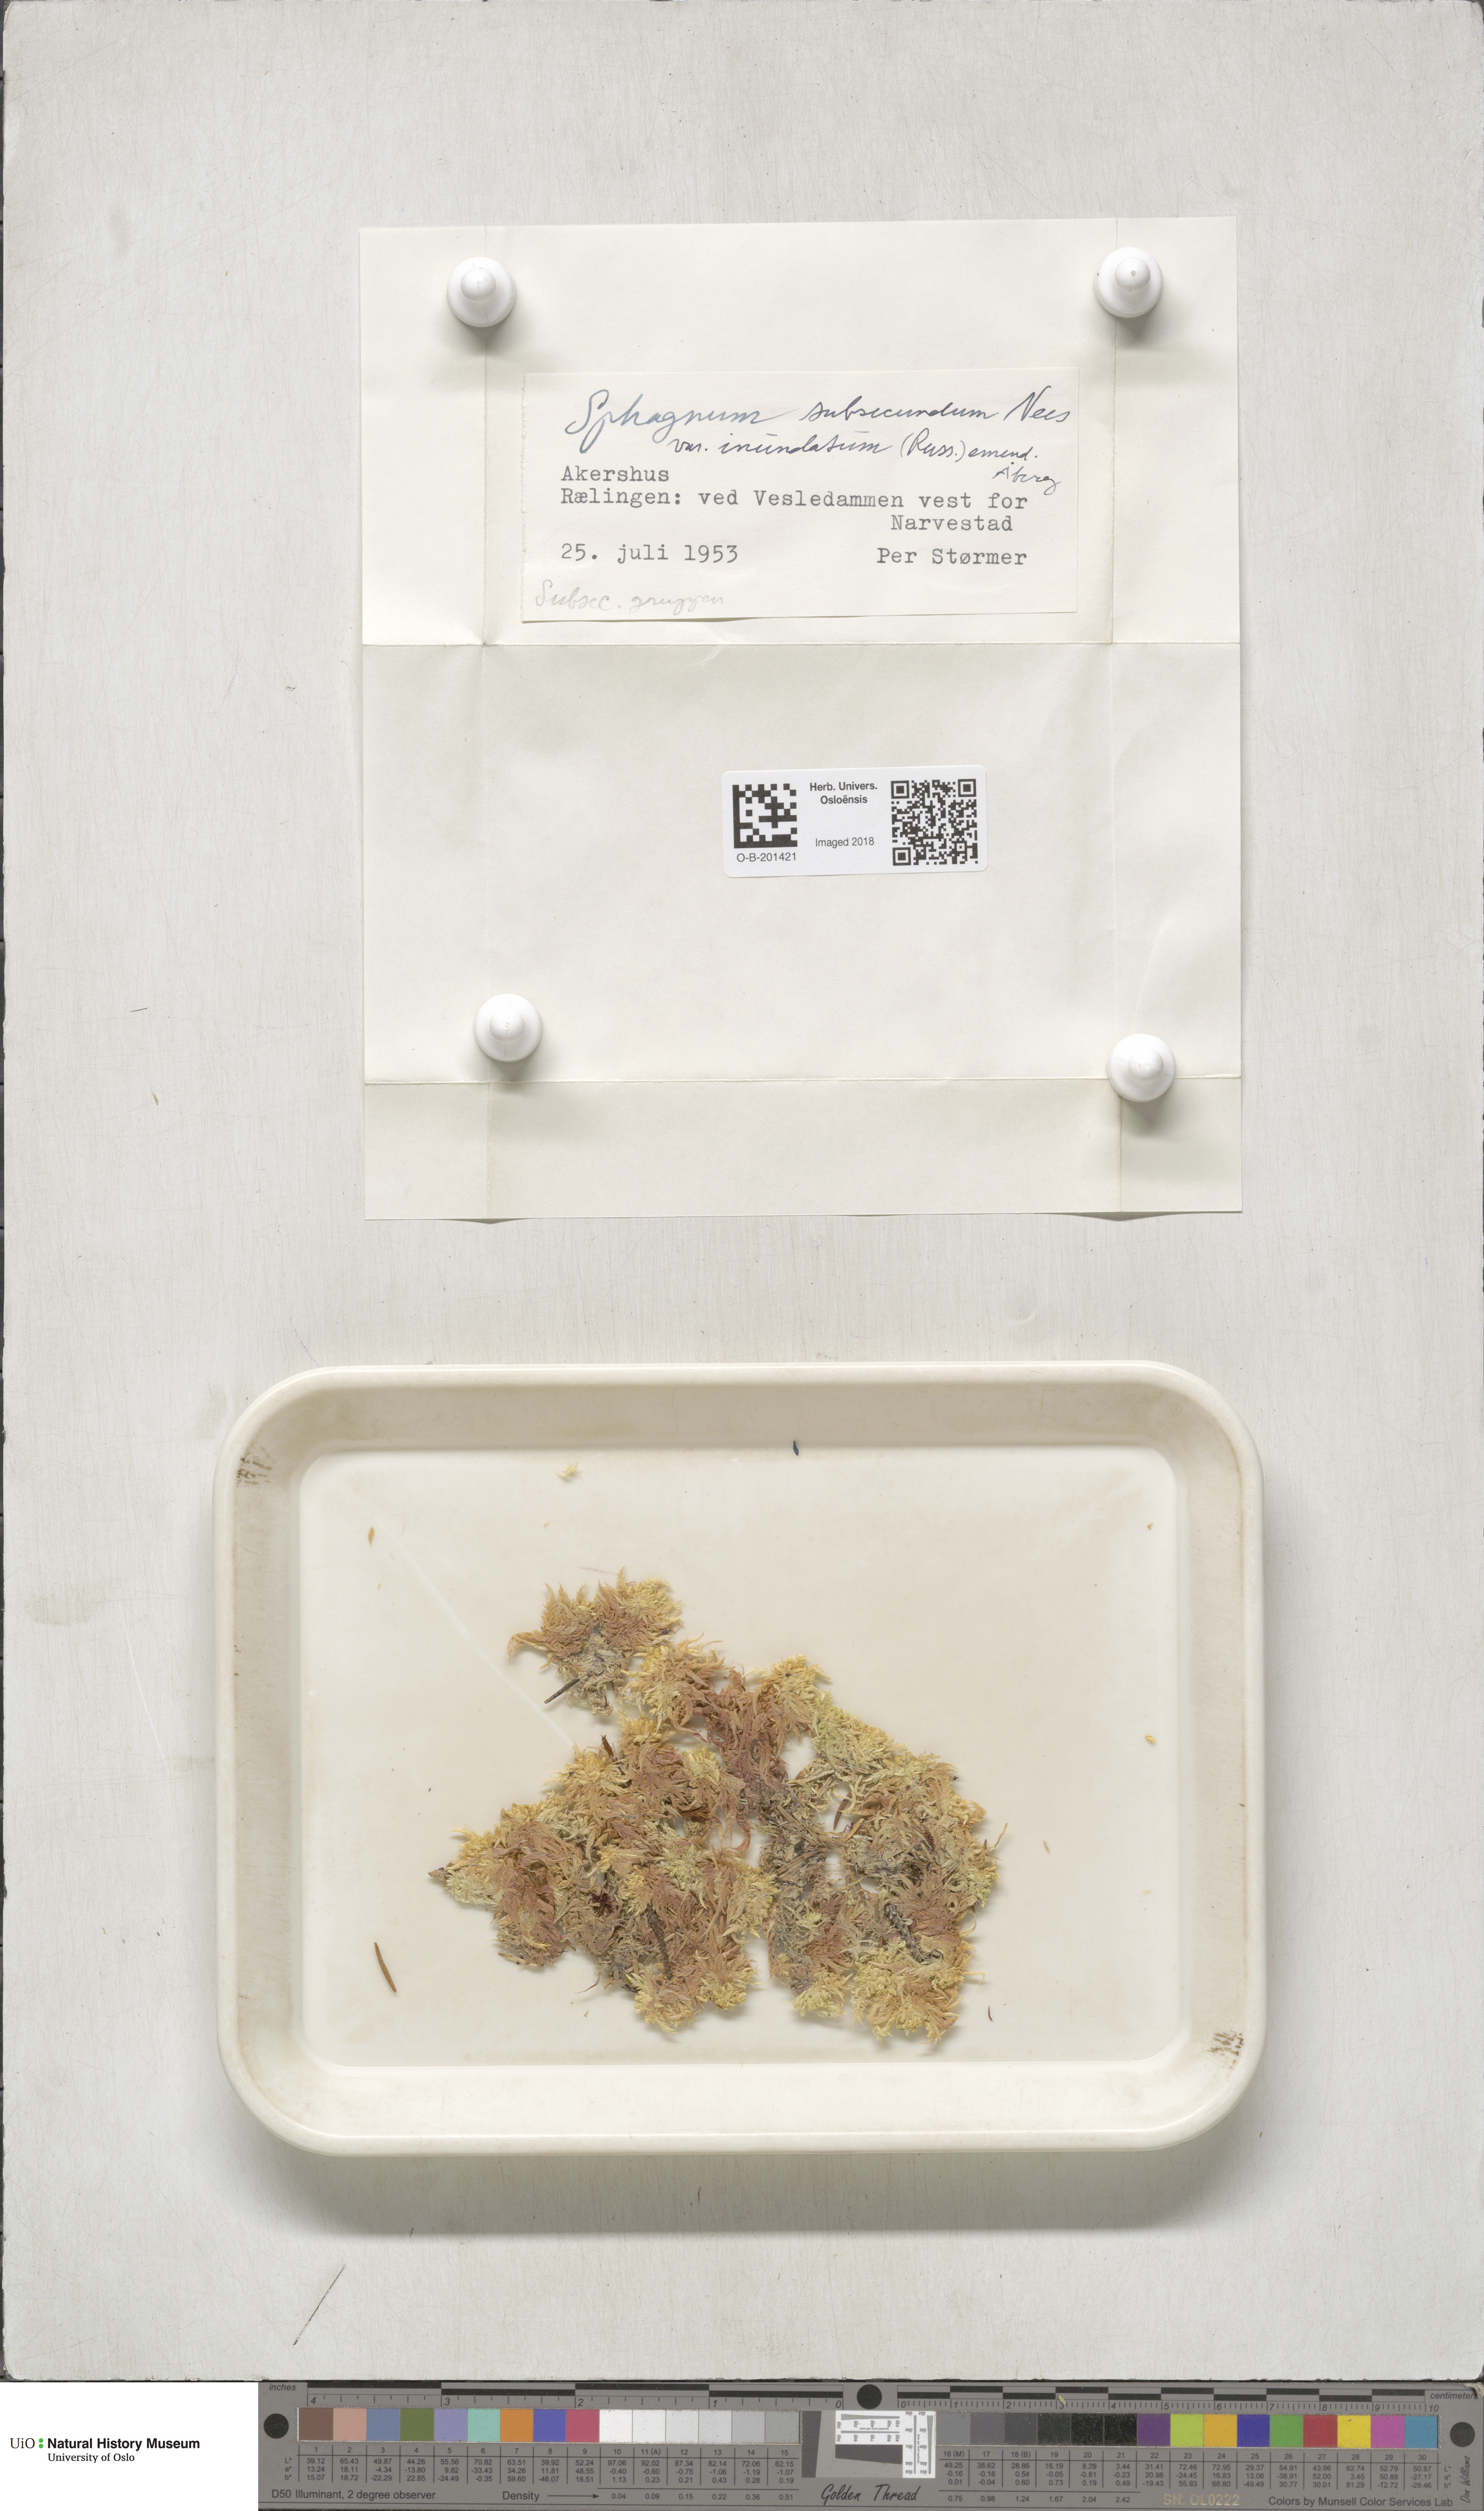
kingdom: Plantae
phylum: Bryophyta
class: Sphagnopsida
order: Sphagnales
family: Sphagnaceae
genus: Sphagnum
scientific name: Sphagnum inundatum
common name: Lesser cow-horn bog-moss
